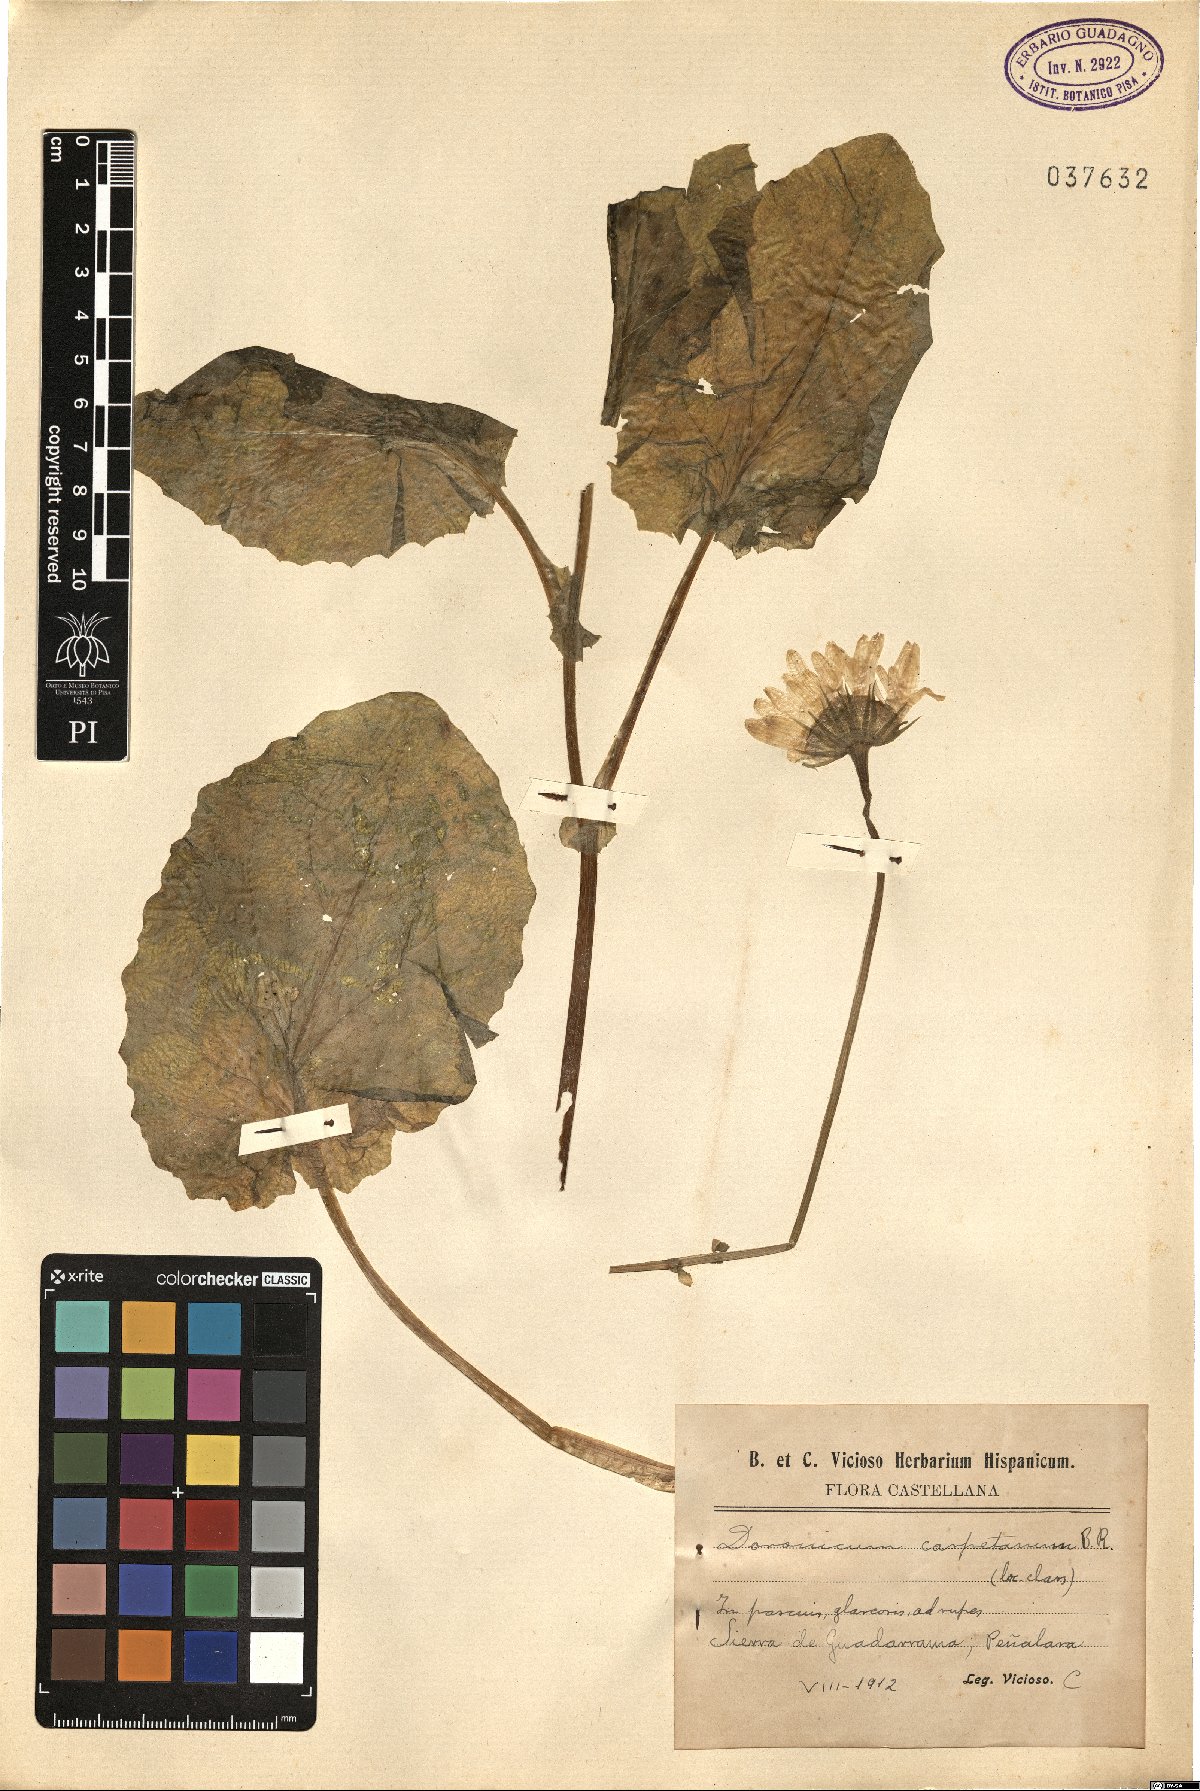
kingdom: Plantae
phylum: Tracheophyta
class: Magnoliopsida
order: Asterales
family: Asteraceae
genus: Doronicum
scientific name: Doronicum carpetanum
